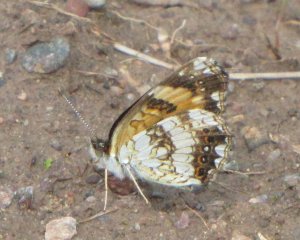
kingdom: Animalia
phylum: Arthropoda
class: Insecta
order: Lepidoptera
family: Nymphalidae
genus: Chlosyne
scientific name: Chlosyne nycteis
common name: Silvery Checkerspot
